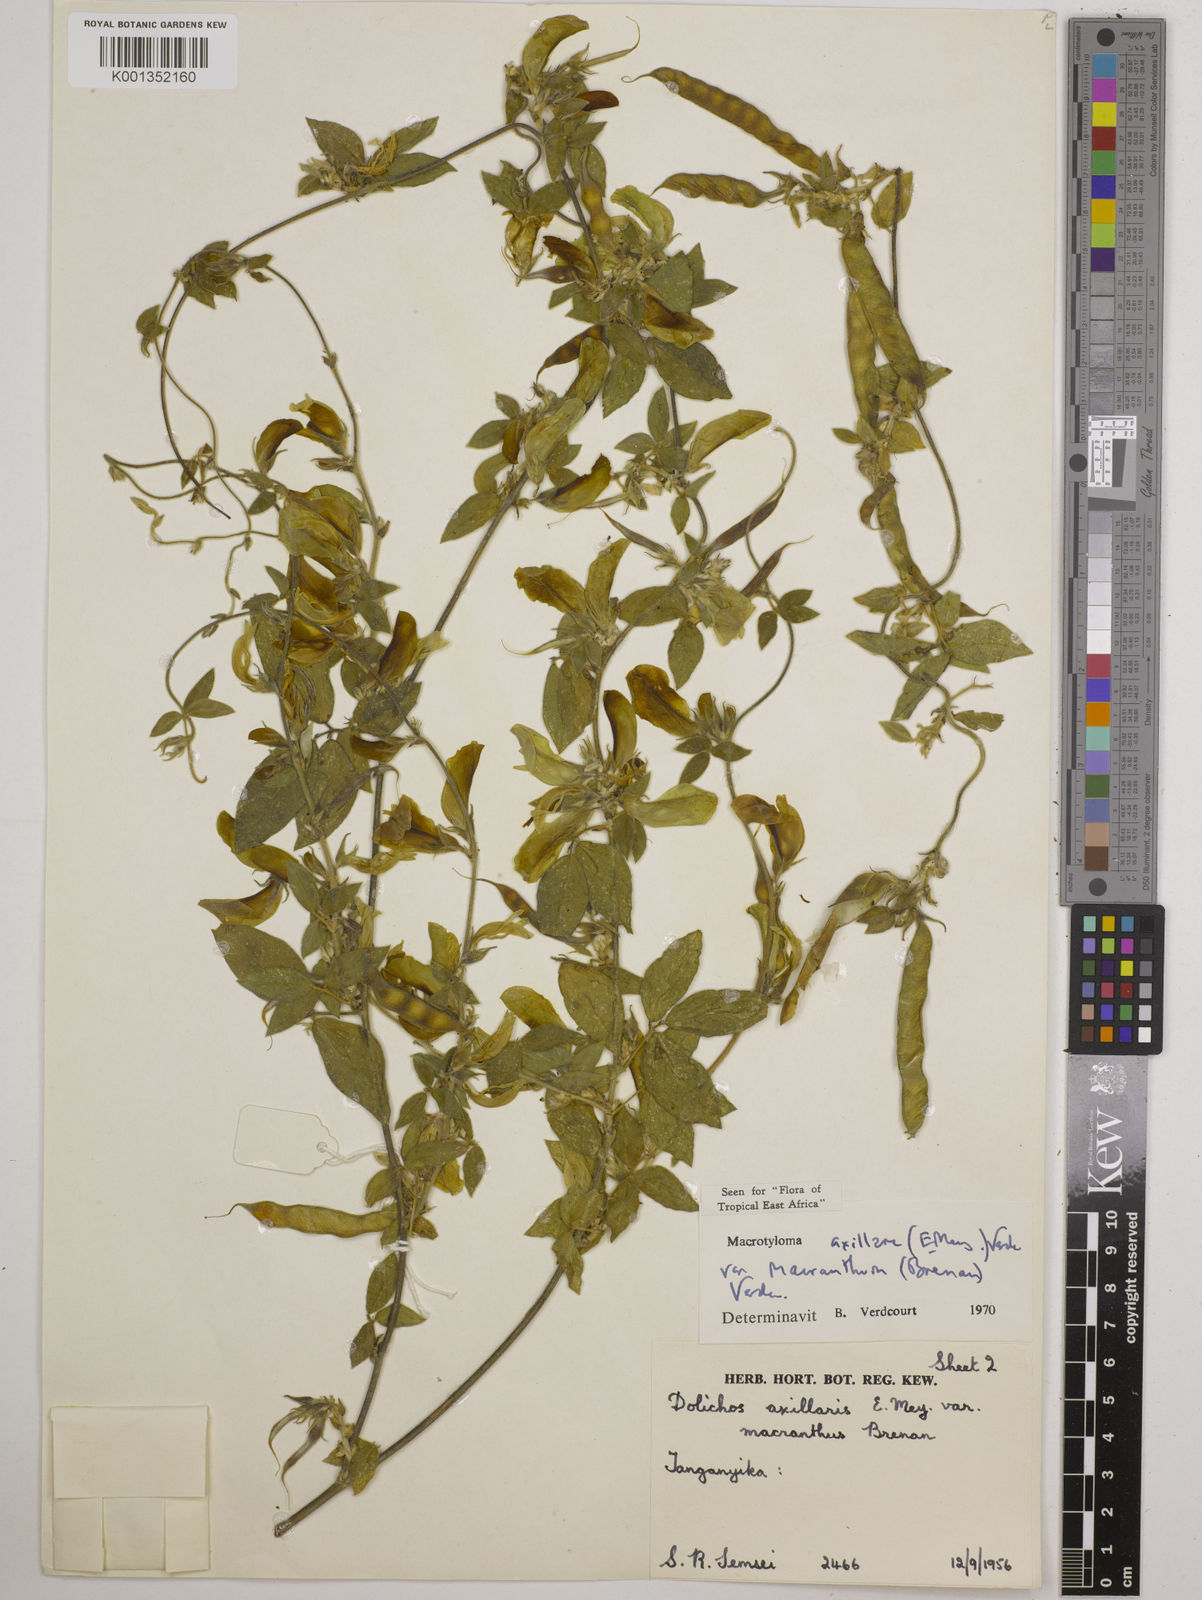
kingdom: Plantae
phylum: Tracheophyta
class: Magnoliopsida
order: Fabales
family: Fabaceae
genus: Macrotyloma
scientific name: Macrotyloma
